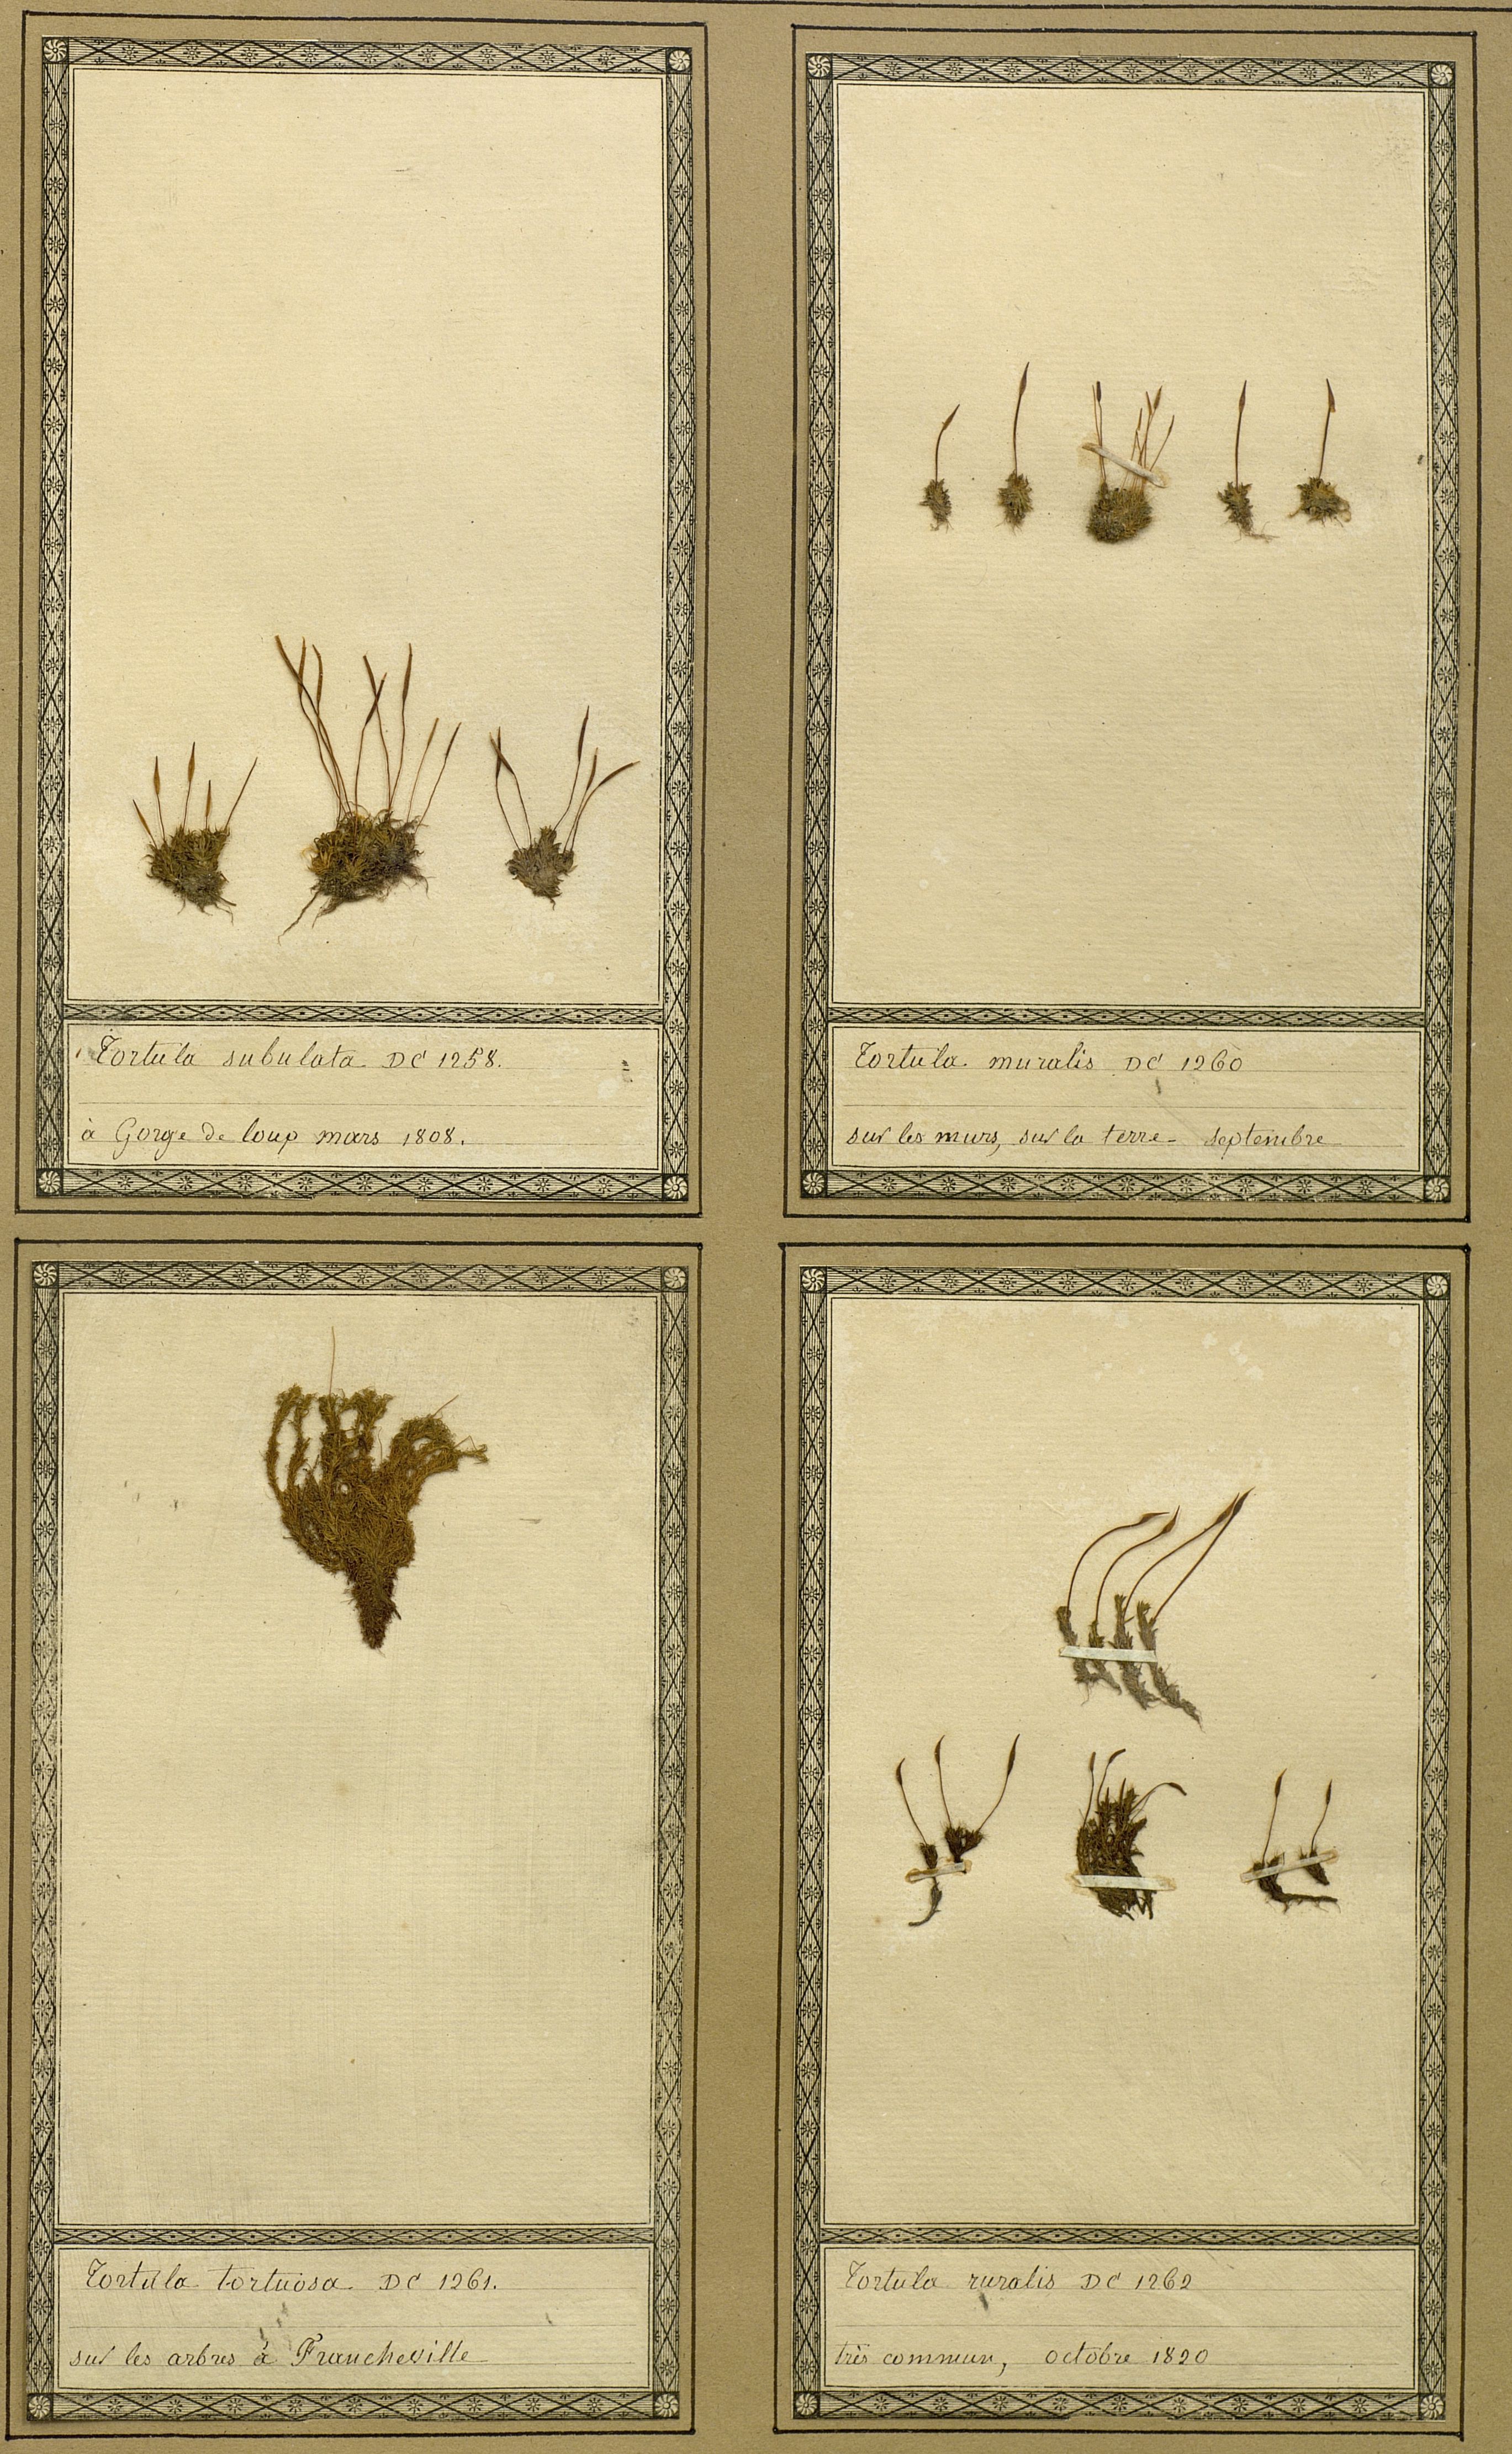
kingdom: Plantae
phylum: Bryophyta
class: Bryopsida
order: Pottiales
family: Pottiaceae
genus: Tortella
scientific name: Tortella tortuosa
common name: Frizzled crisp moss
